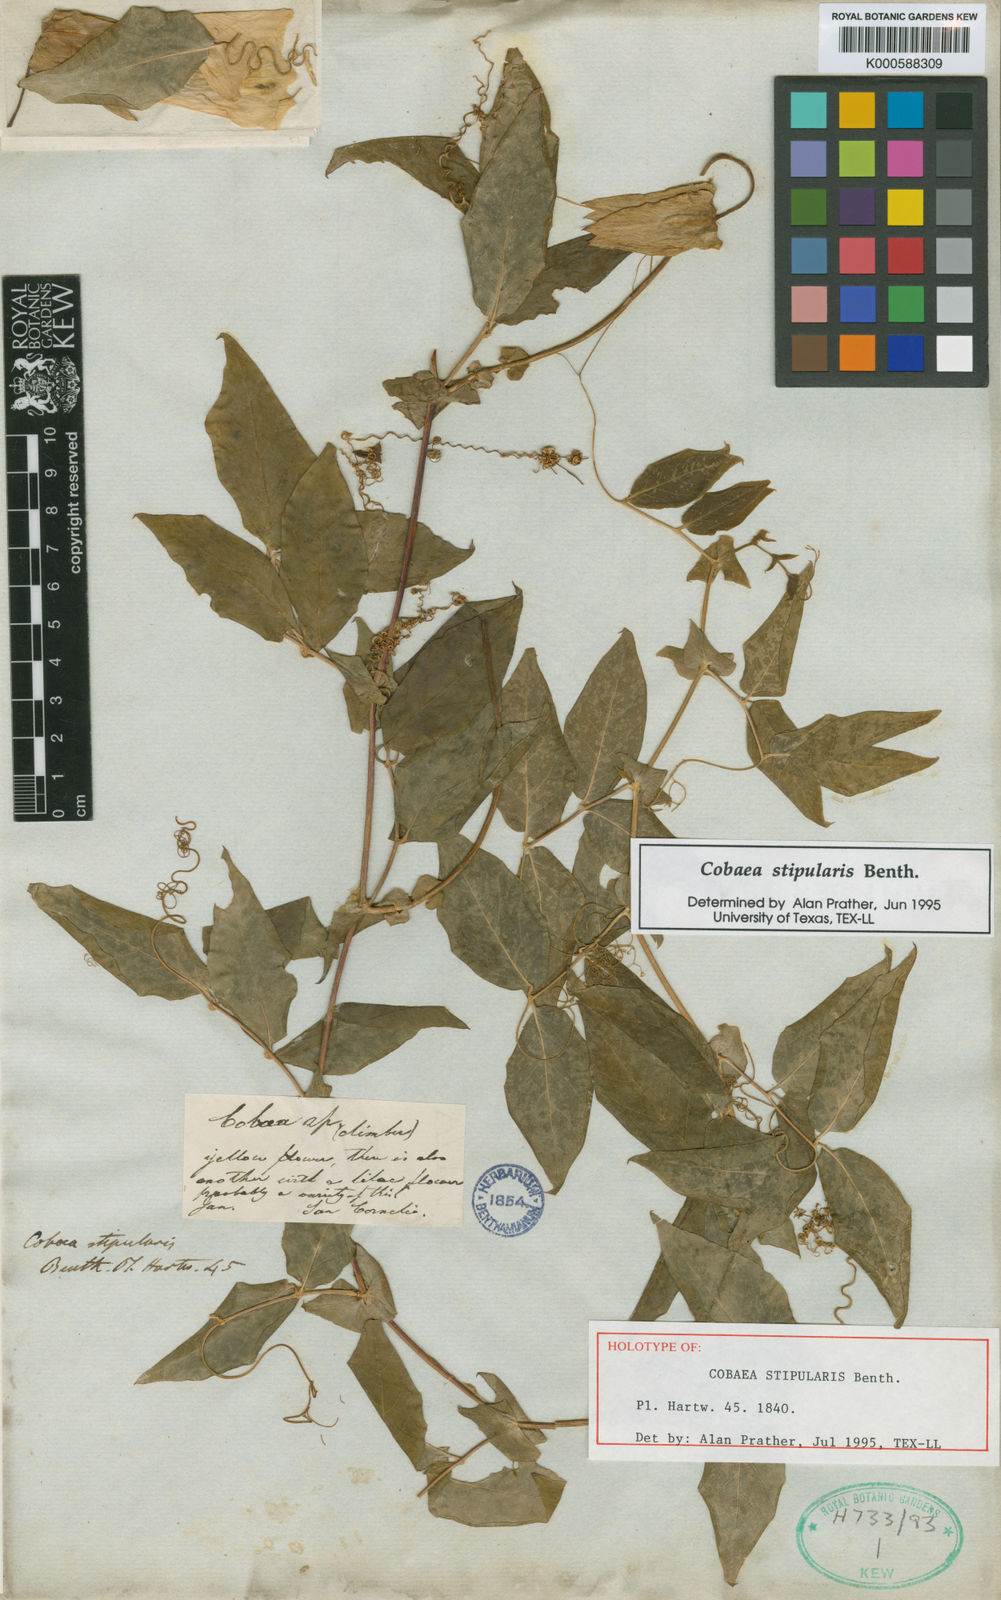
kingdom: Plantae
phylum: Tracheophyta
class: Magnoliopsida
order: Ericales
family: Polemoniaceae
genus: Cobaea
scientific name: Cobaea stipularis
